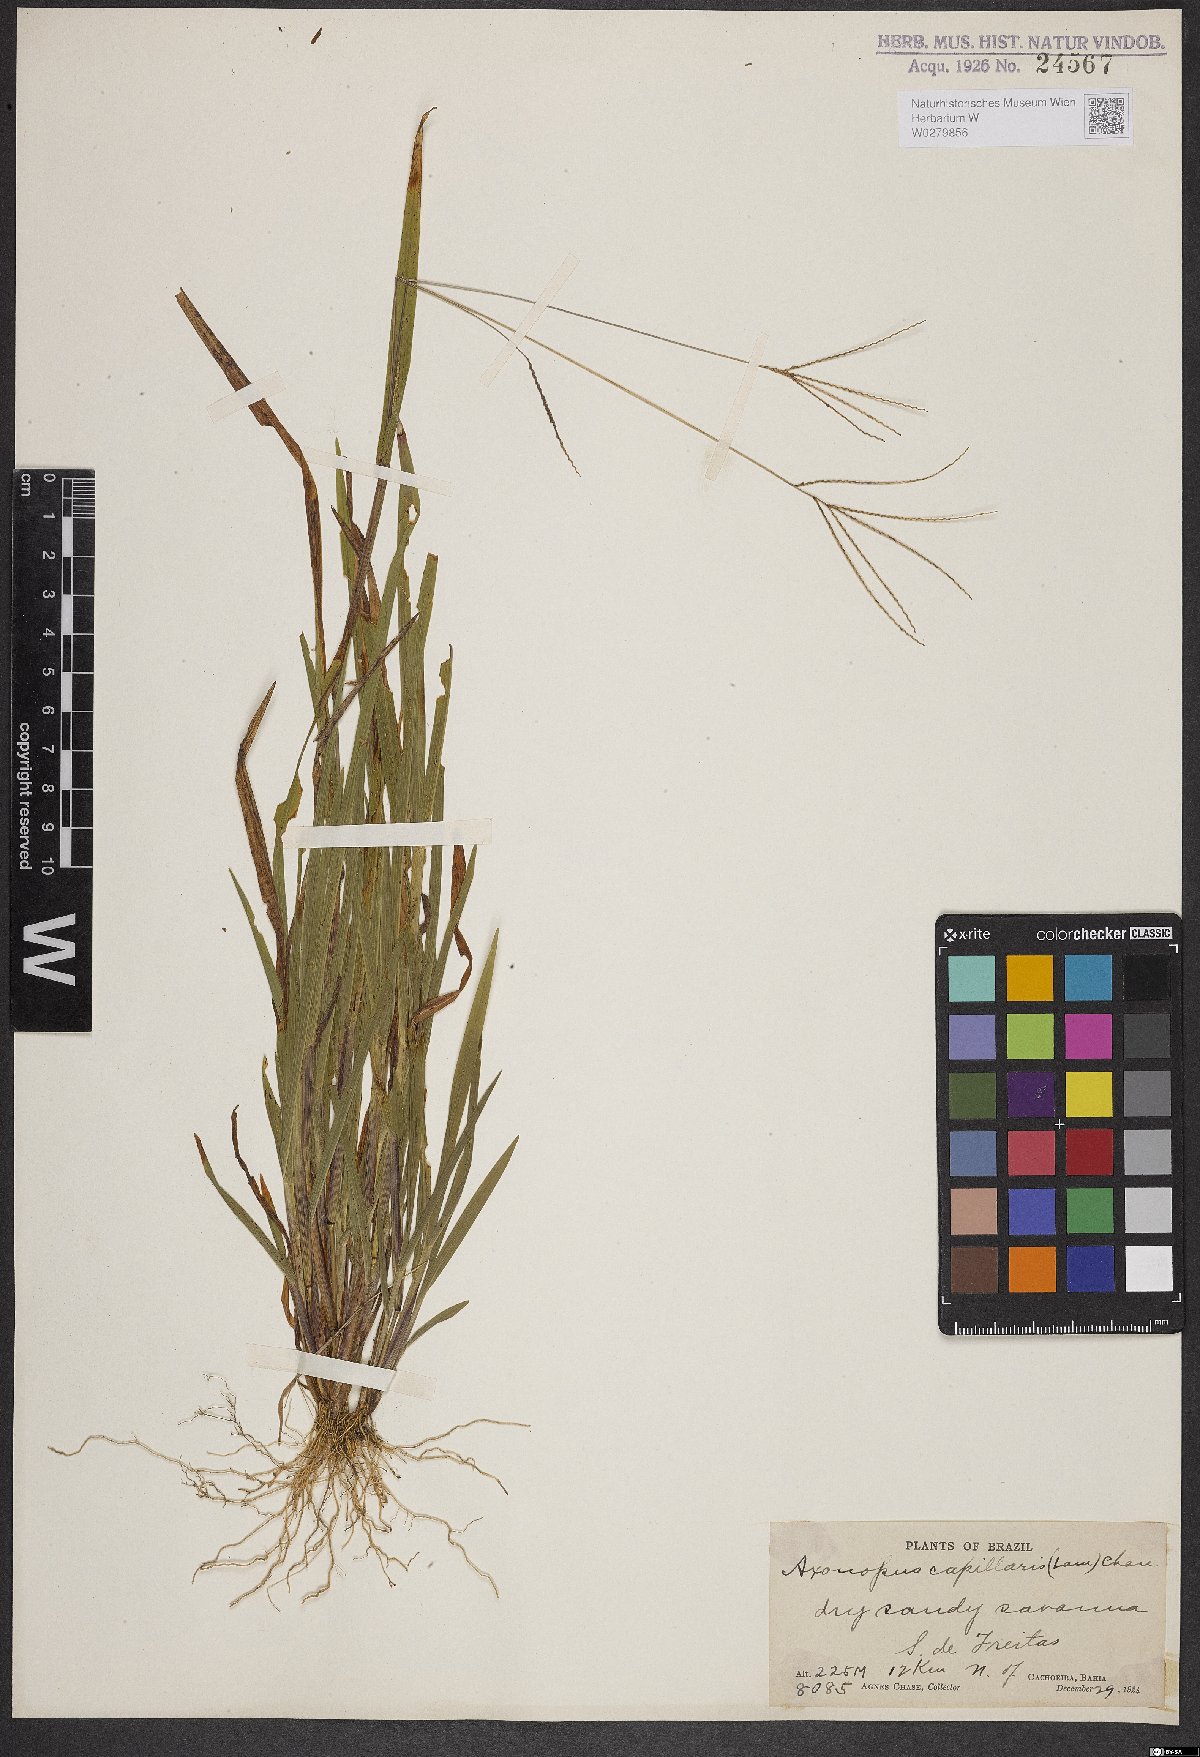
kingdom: Plantae
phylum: Tracheophyta
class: Liliopsida
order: Poales
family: Poaceae
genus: Axonopus
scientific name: Axonopus capillaris
